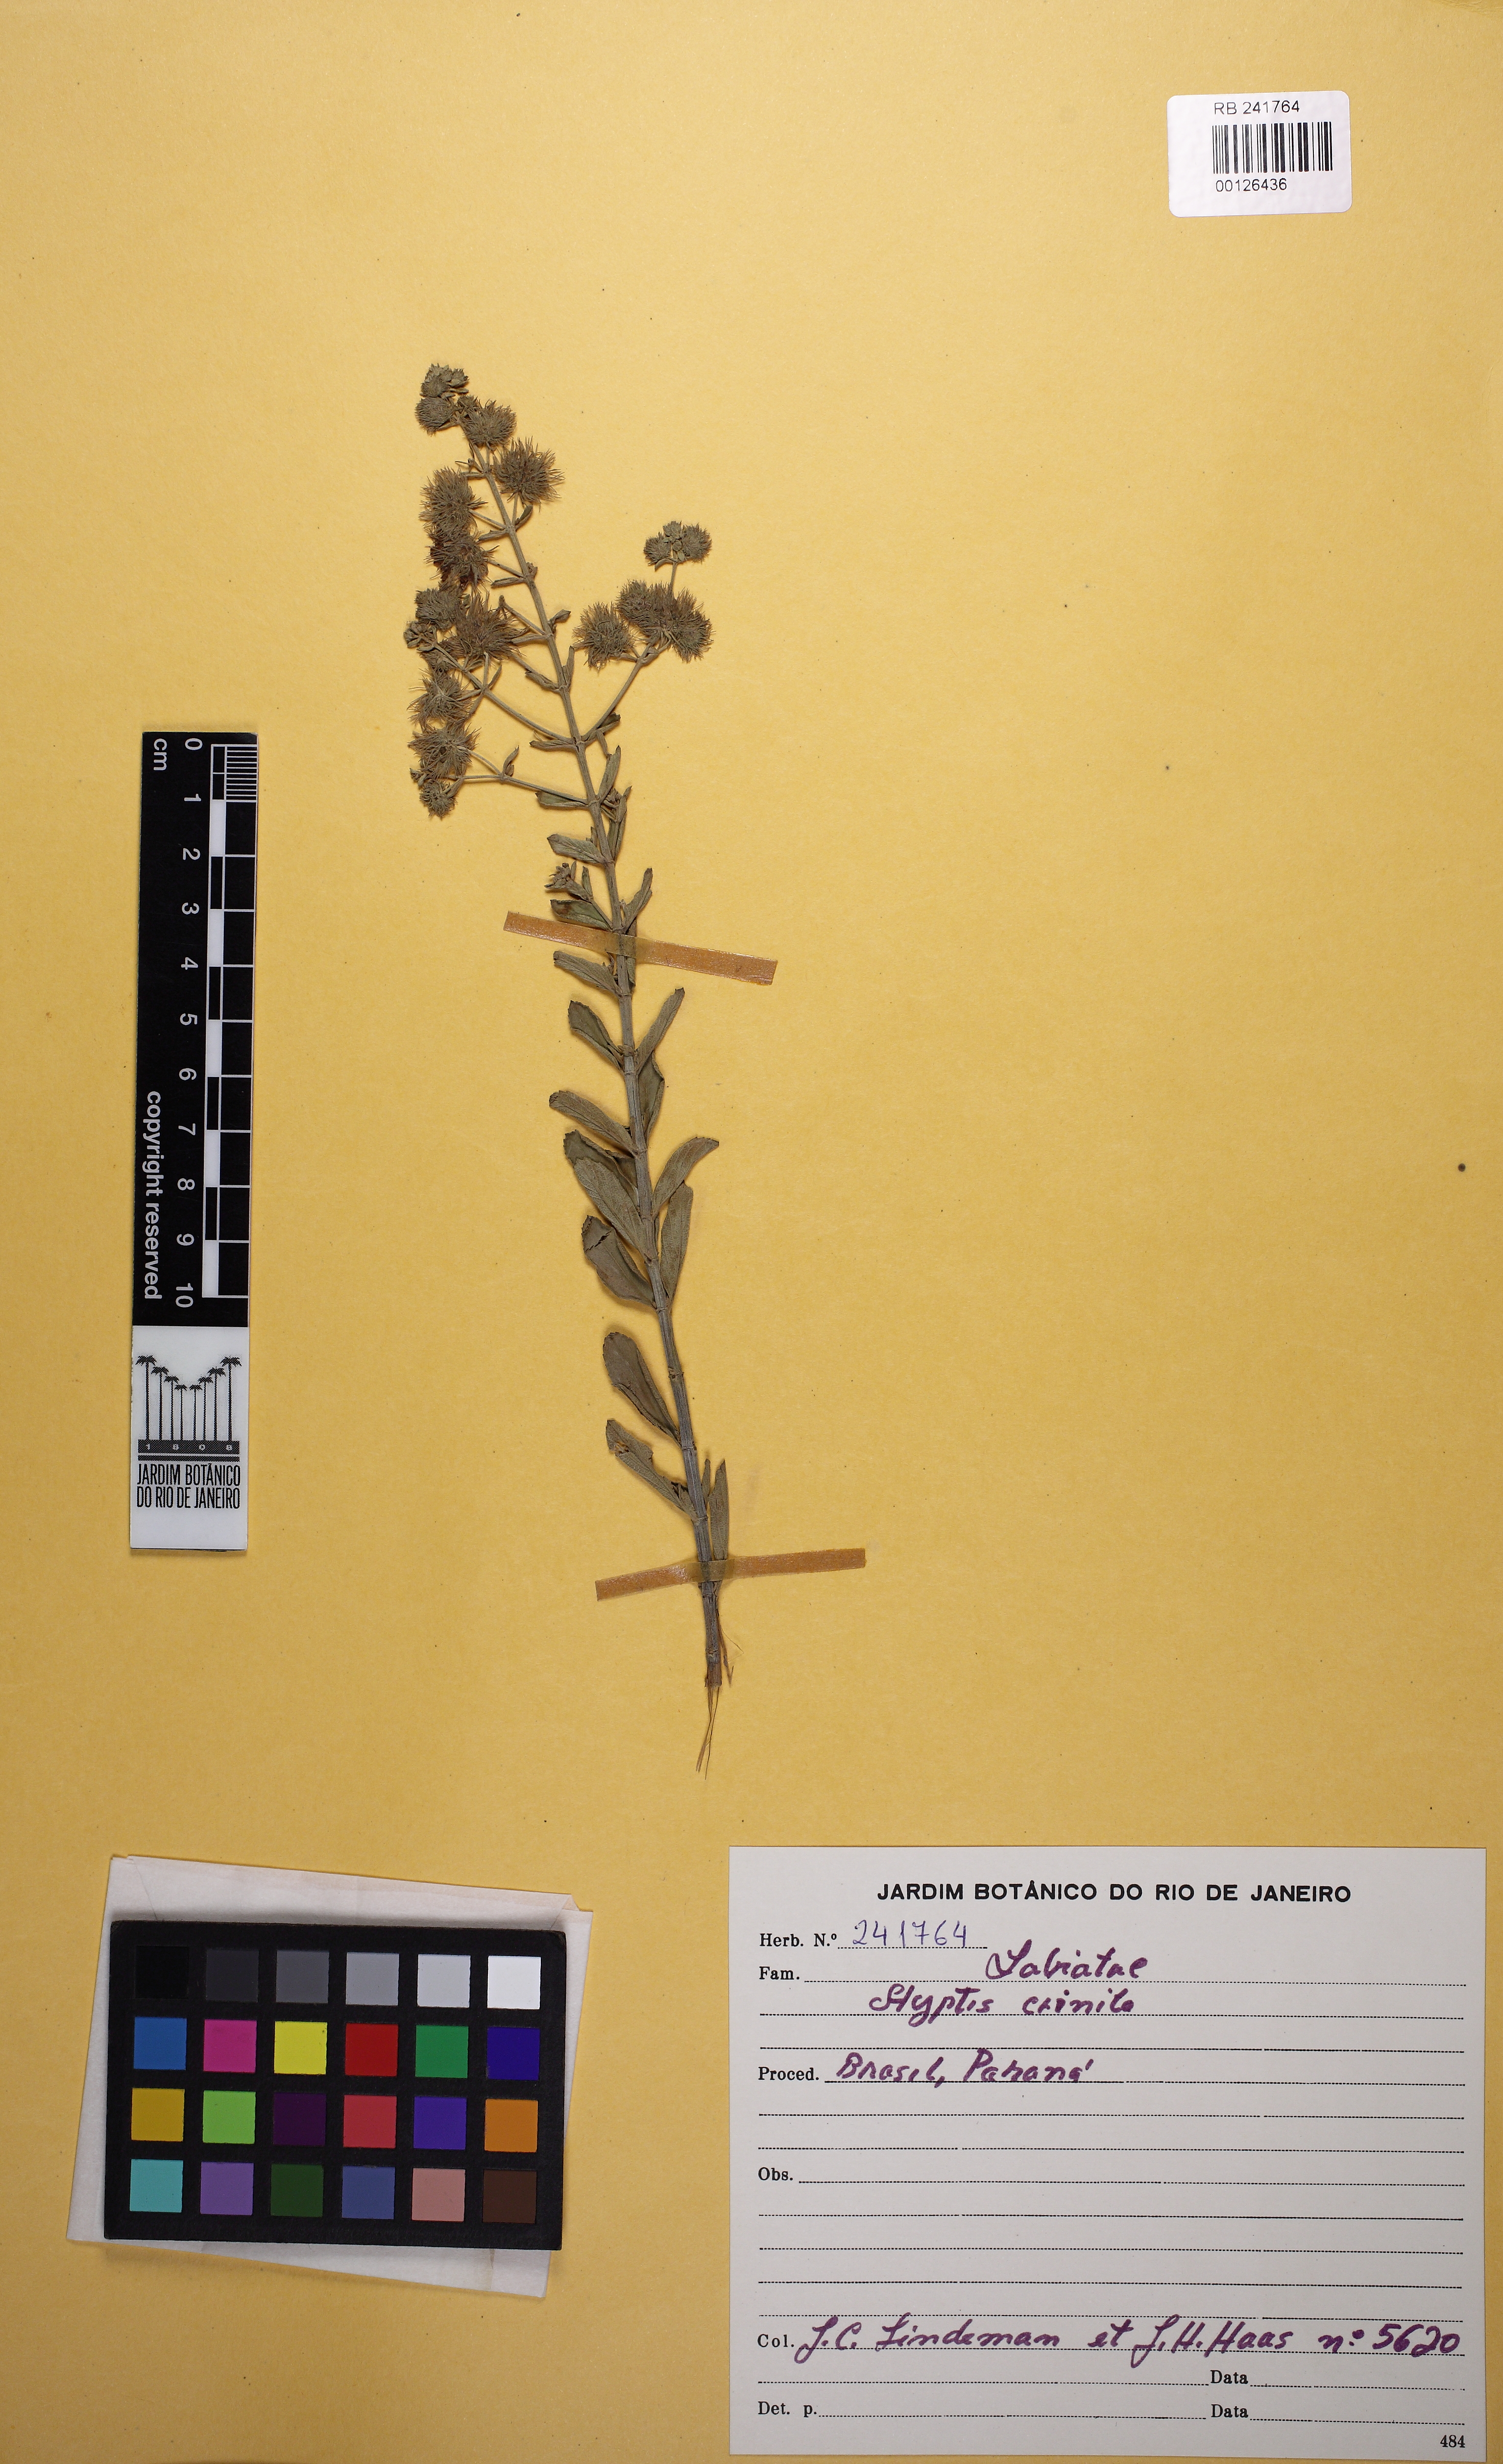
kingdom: Plantae
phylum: Tracheophyta
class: Magnoliopsida
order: Lamiales
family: Lamiaceae
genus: Medusantha
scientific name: Medusantha crinita
